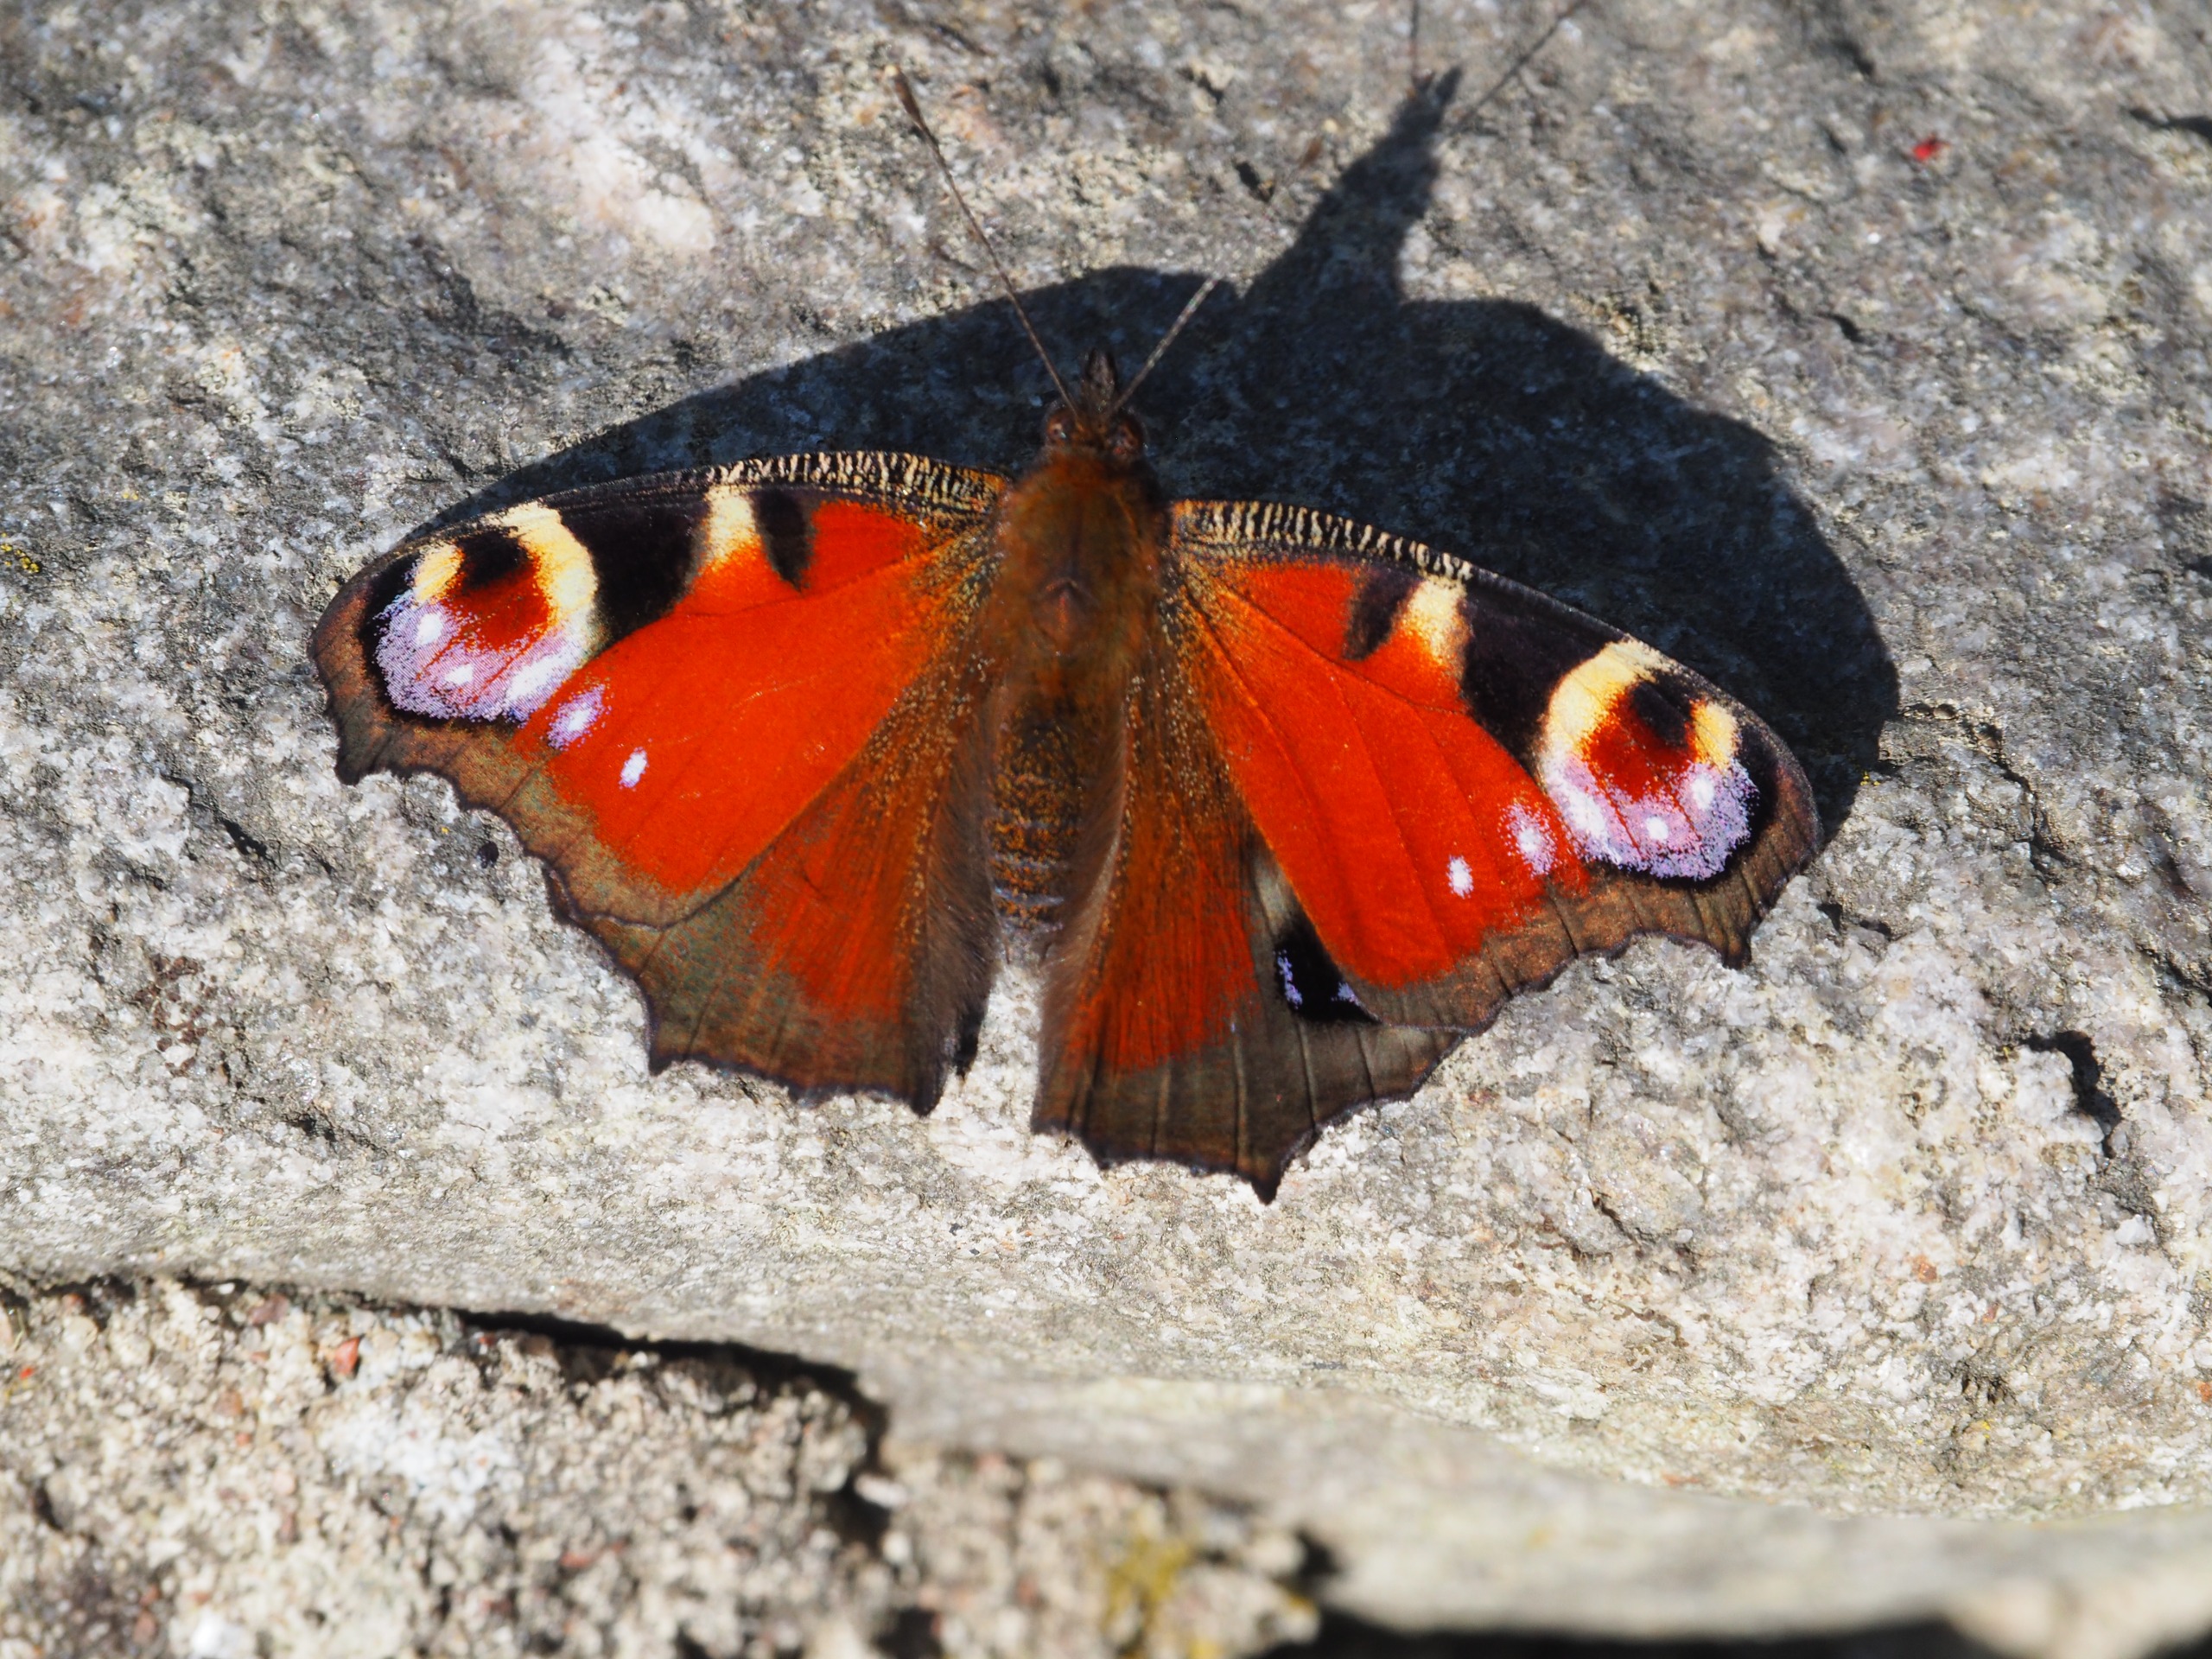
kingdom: Animalia
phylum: Arthropoda
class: Insecta
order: Lepidoptera
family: Nymphalidae
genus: Aglais
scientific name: Aglais io
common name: Dagpåfugleøje
